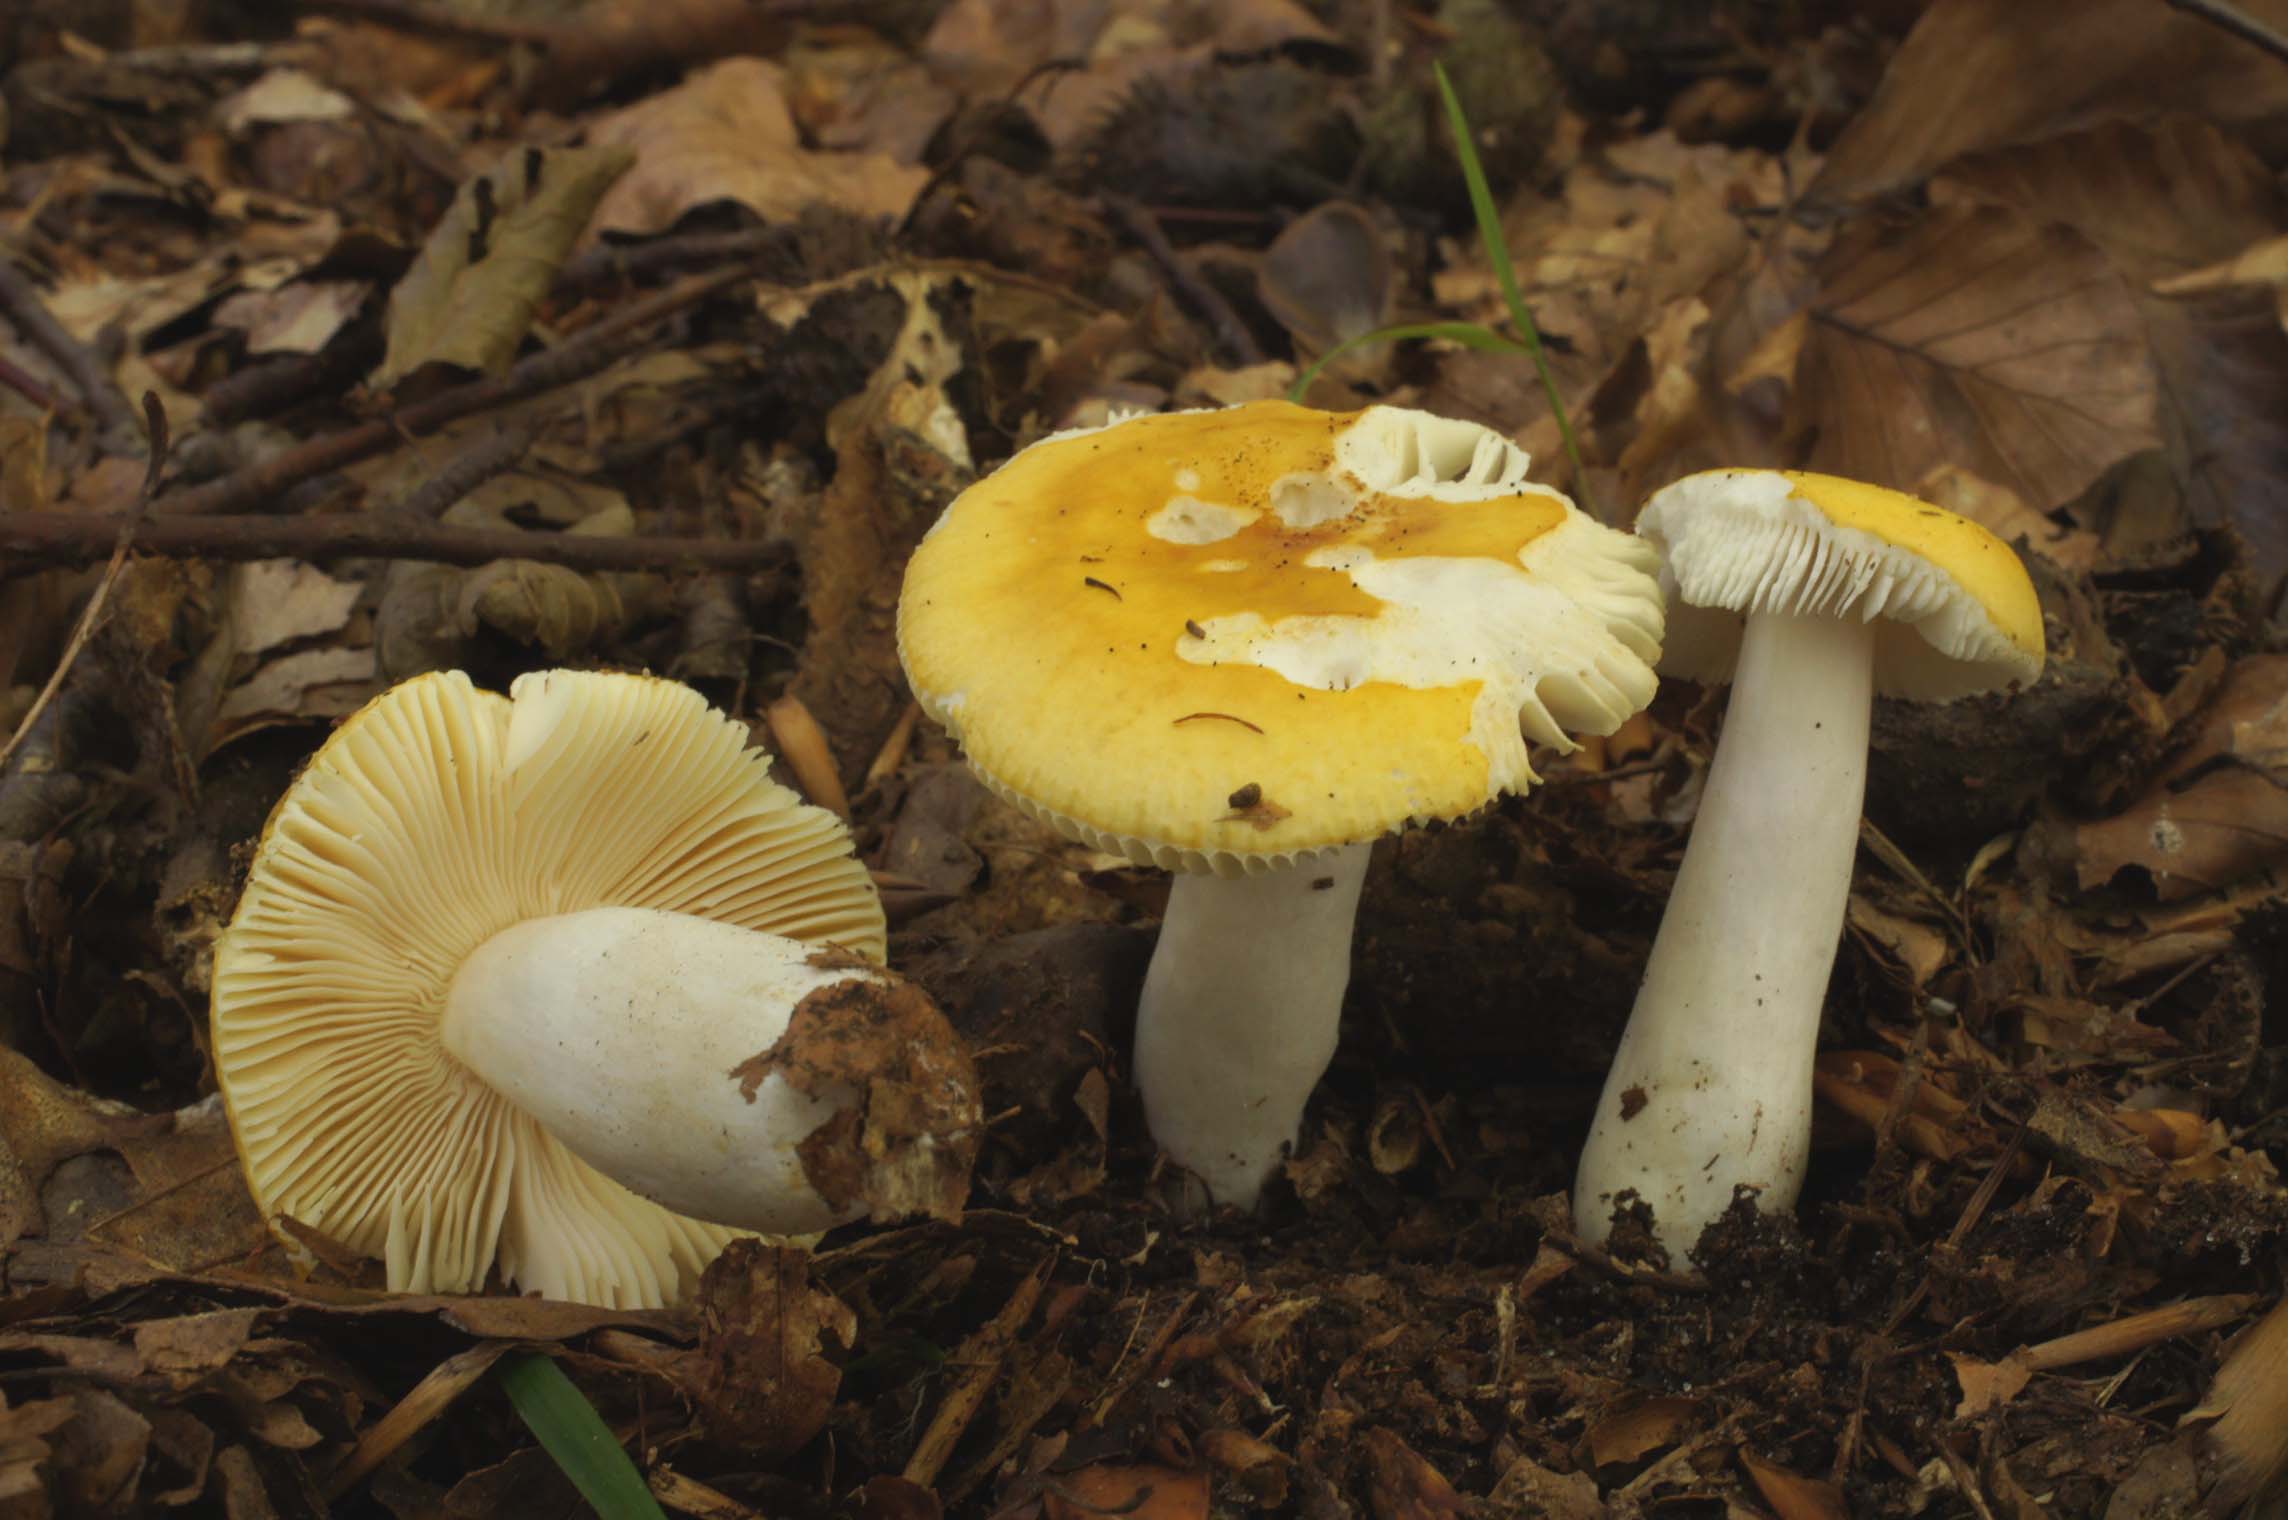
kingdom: Fungi
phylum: Basidiomycota
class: Agaricomycetes
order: Russulales
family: Russulaceae
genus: Russula
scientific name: Russula solaris
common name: sol-skørhat
